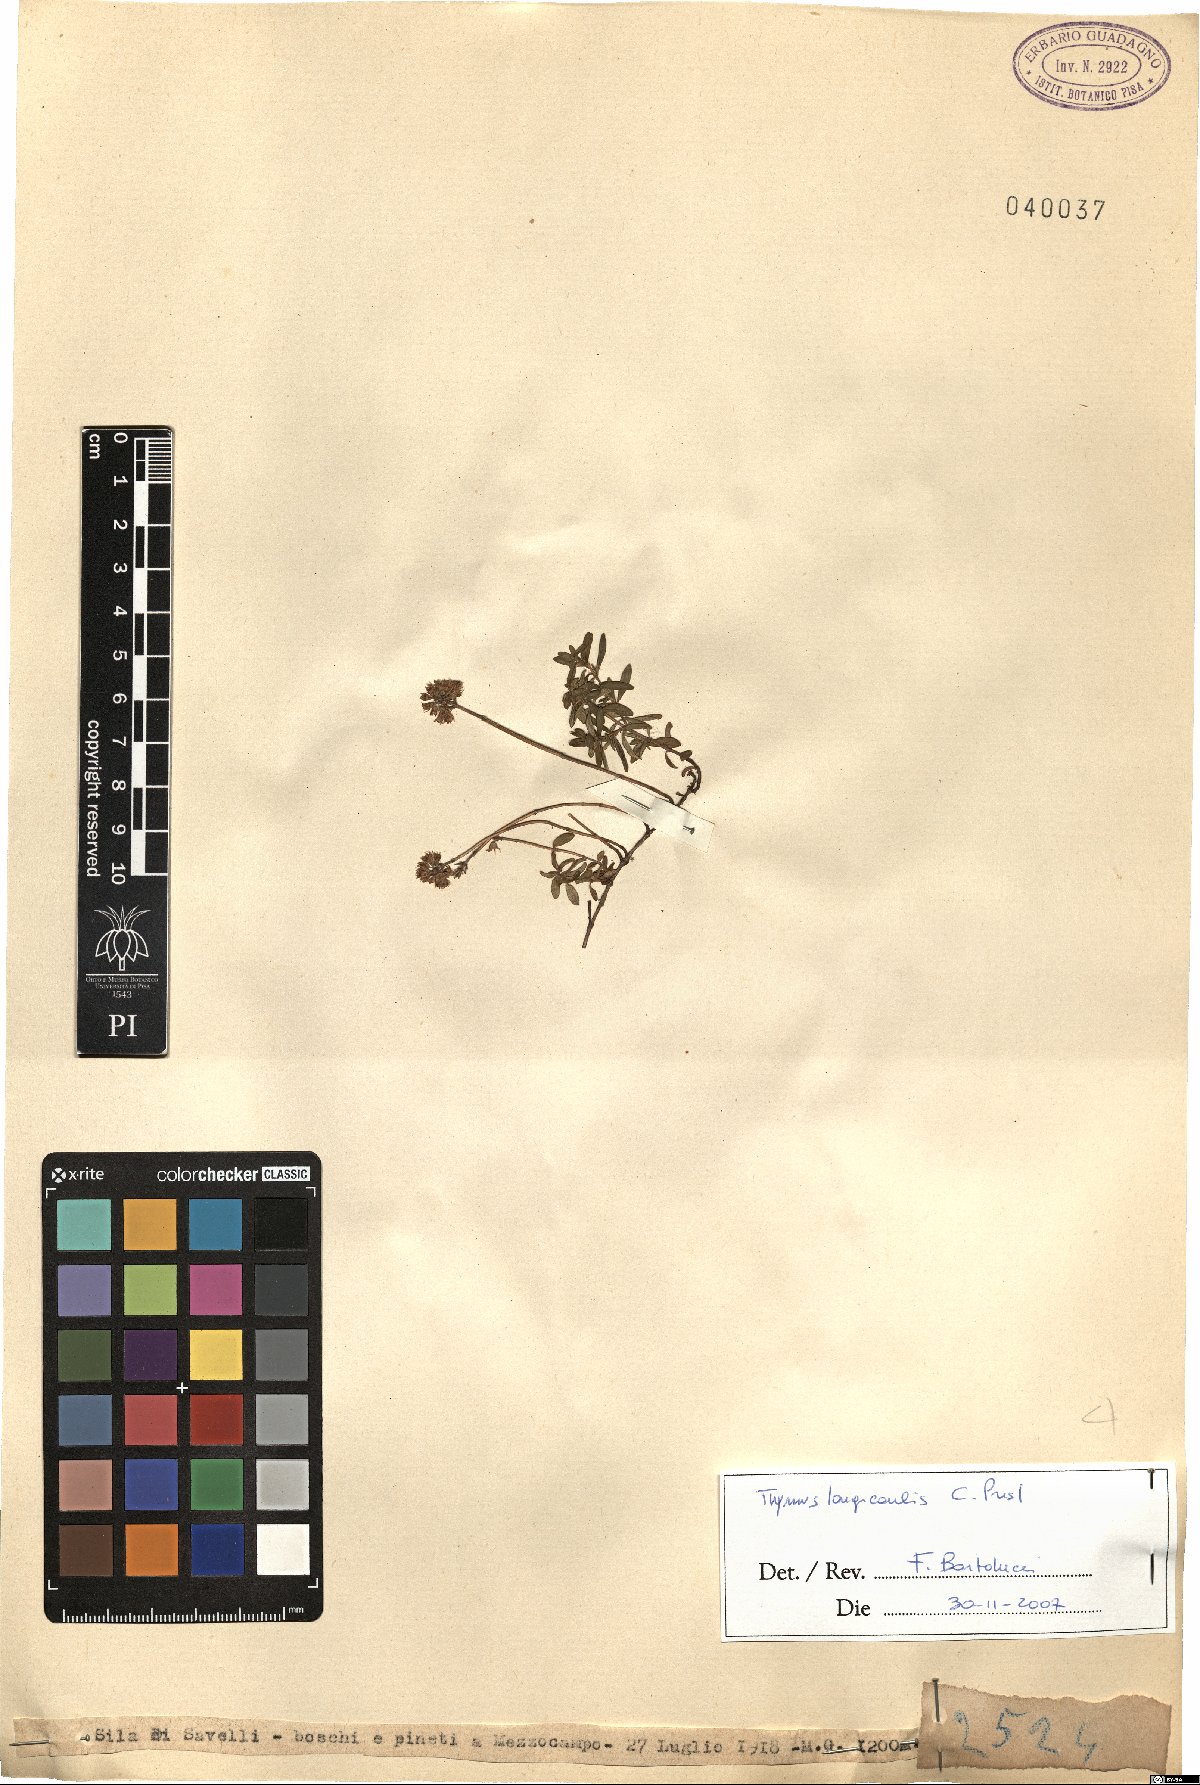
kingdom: Plantae
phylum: Tracheophyta
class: Magnoliopsida
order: Lamiales
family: Lamiaceae
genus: Thymus
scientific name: Thymus longicaulis
